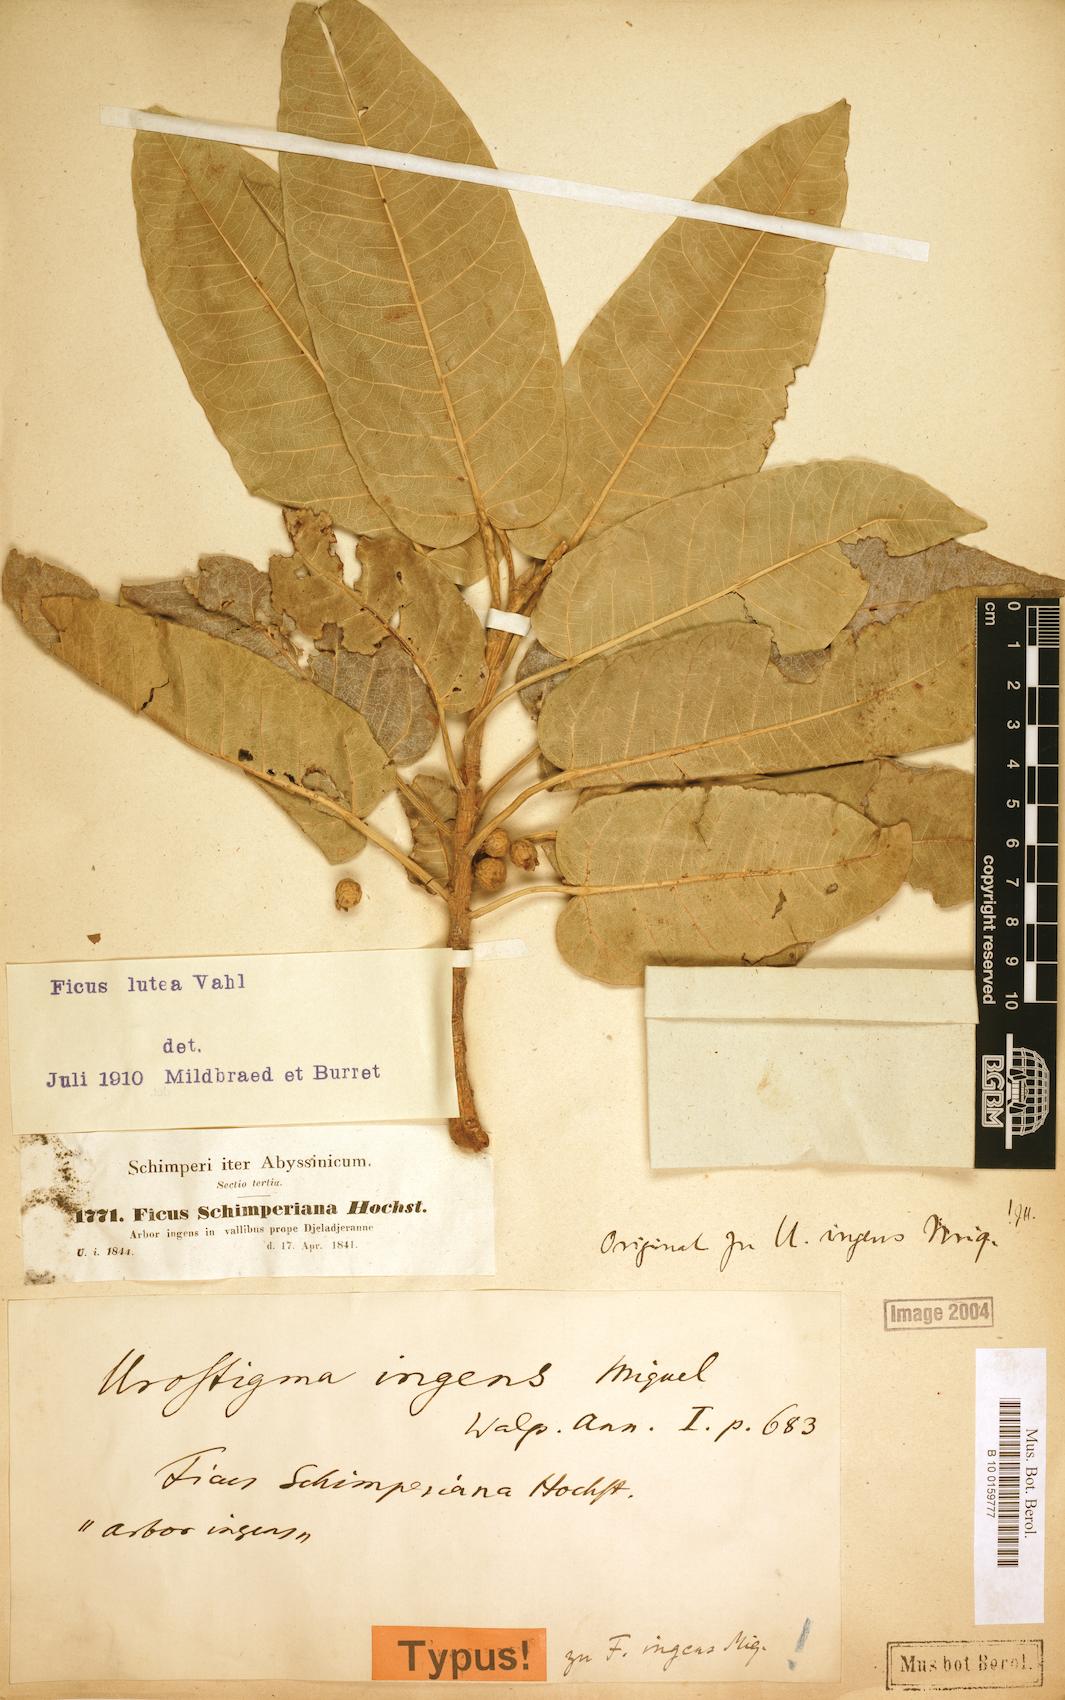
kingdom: Plantae
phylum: Tracheophyta
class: Magnoliopsida
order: Rosales
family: Moraceae
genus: Ficus
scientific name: Ficus ingens
